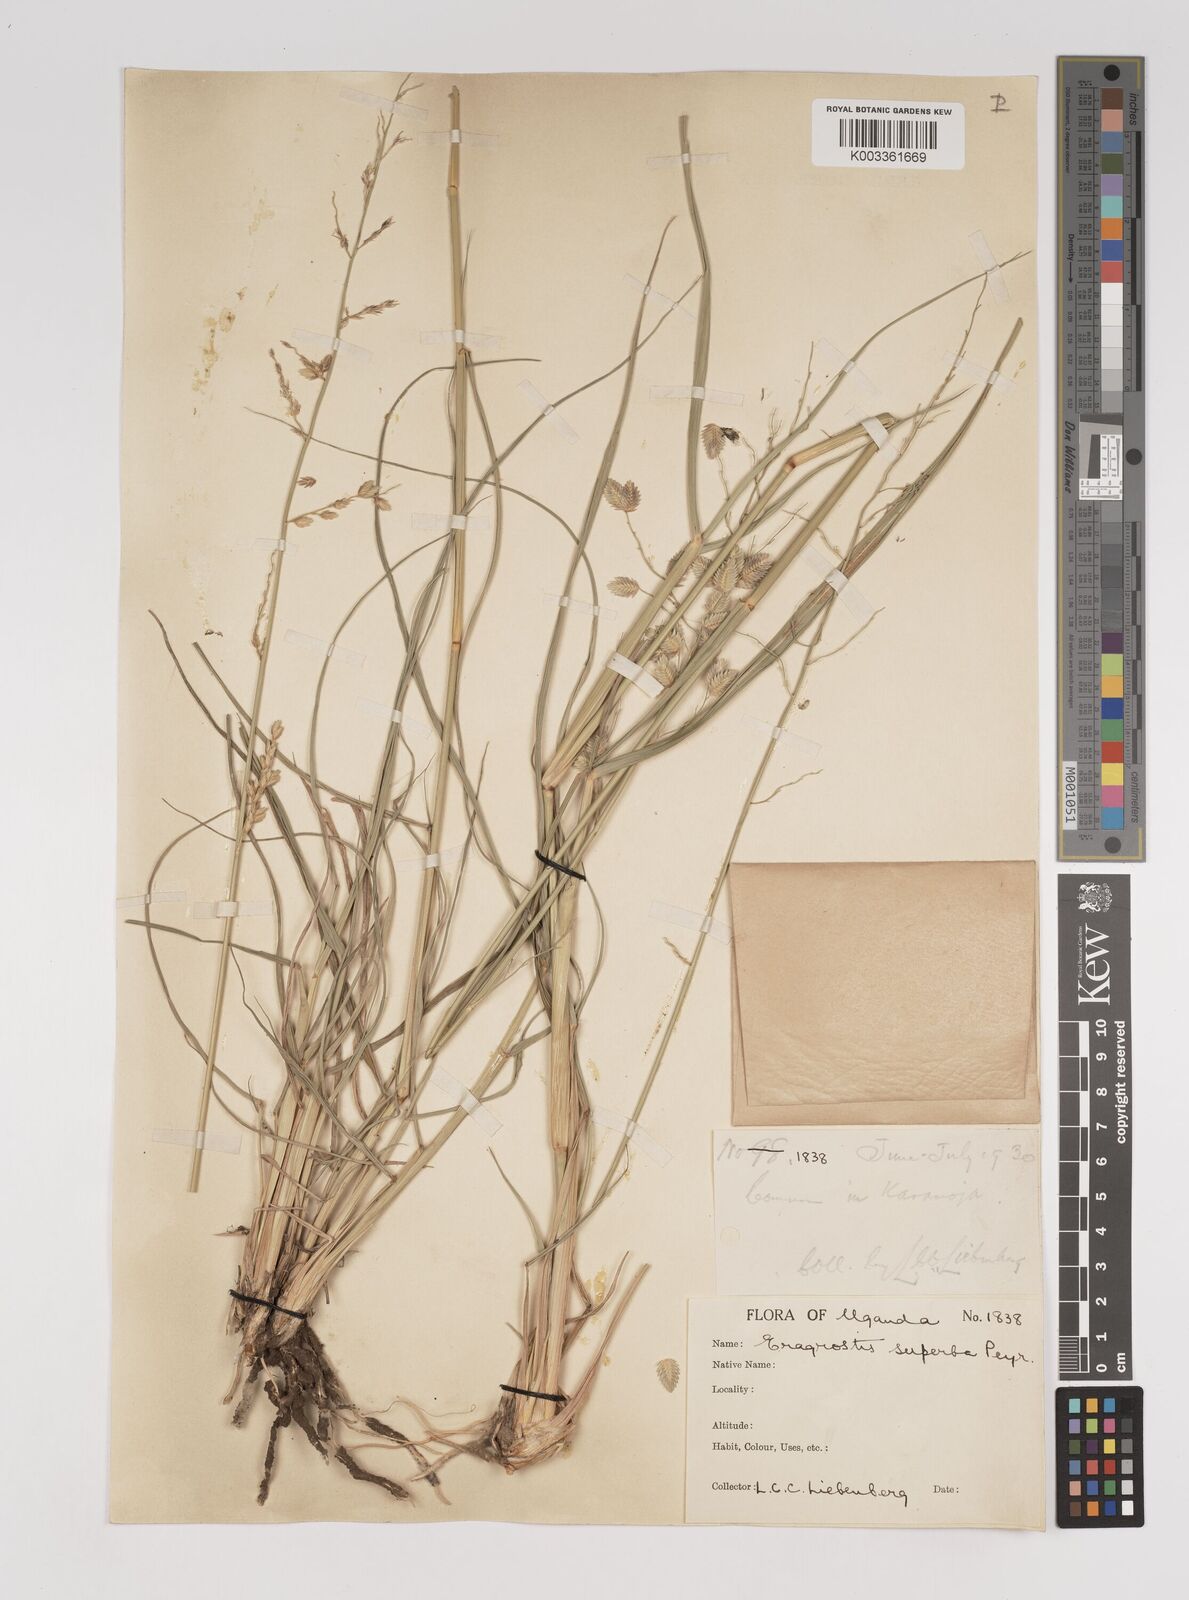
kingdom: Plantae
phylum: Tracheophyta
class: Liliopsida
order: Poales
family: Poaceae
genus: Eragrostis
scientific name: Eragrostis superba
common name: Wilman lovegrass
